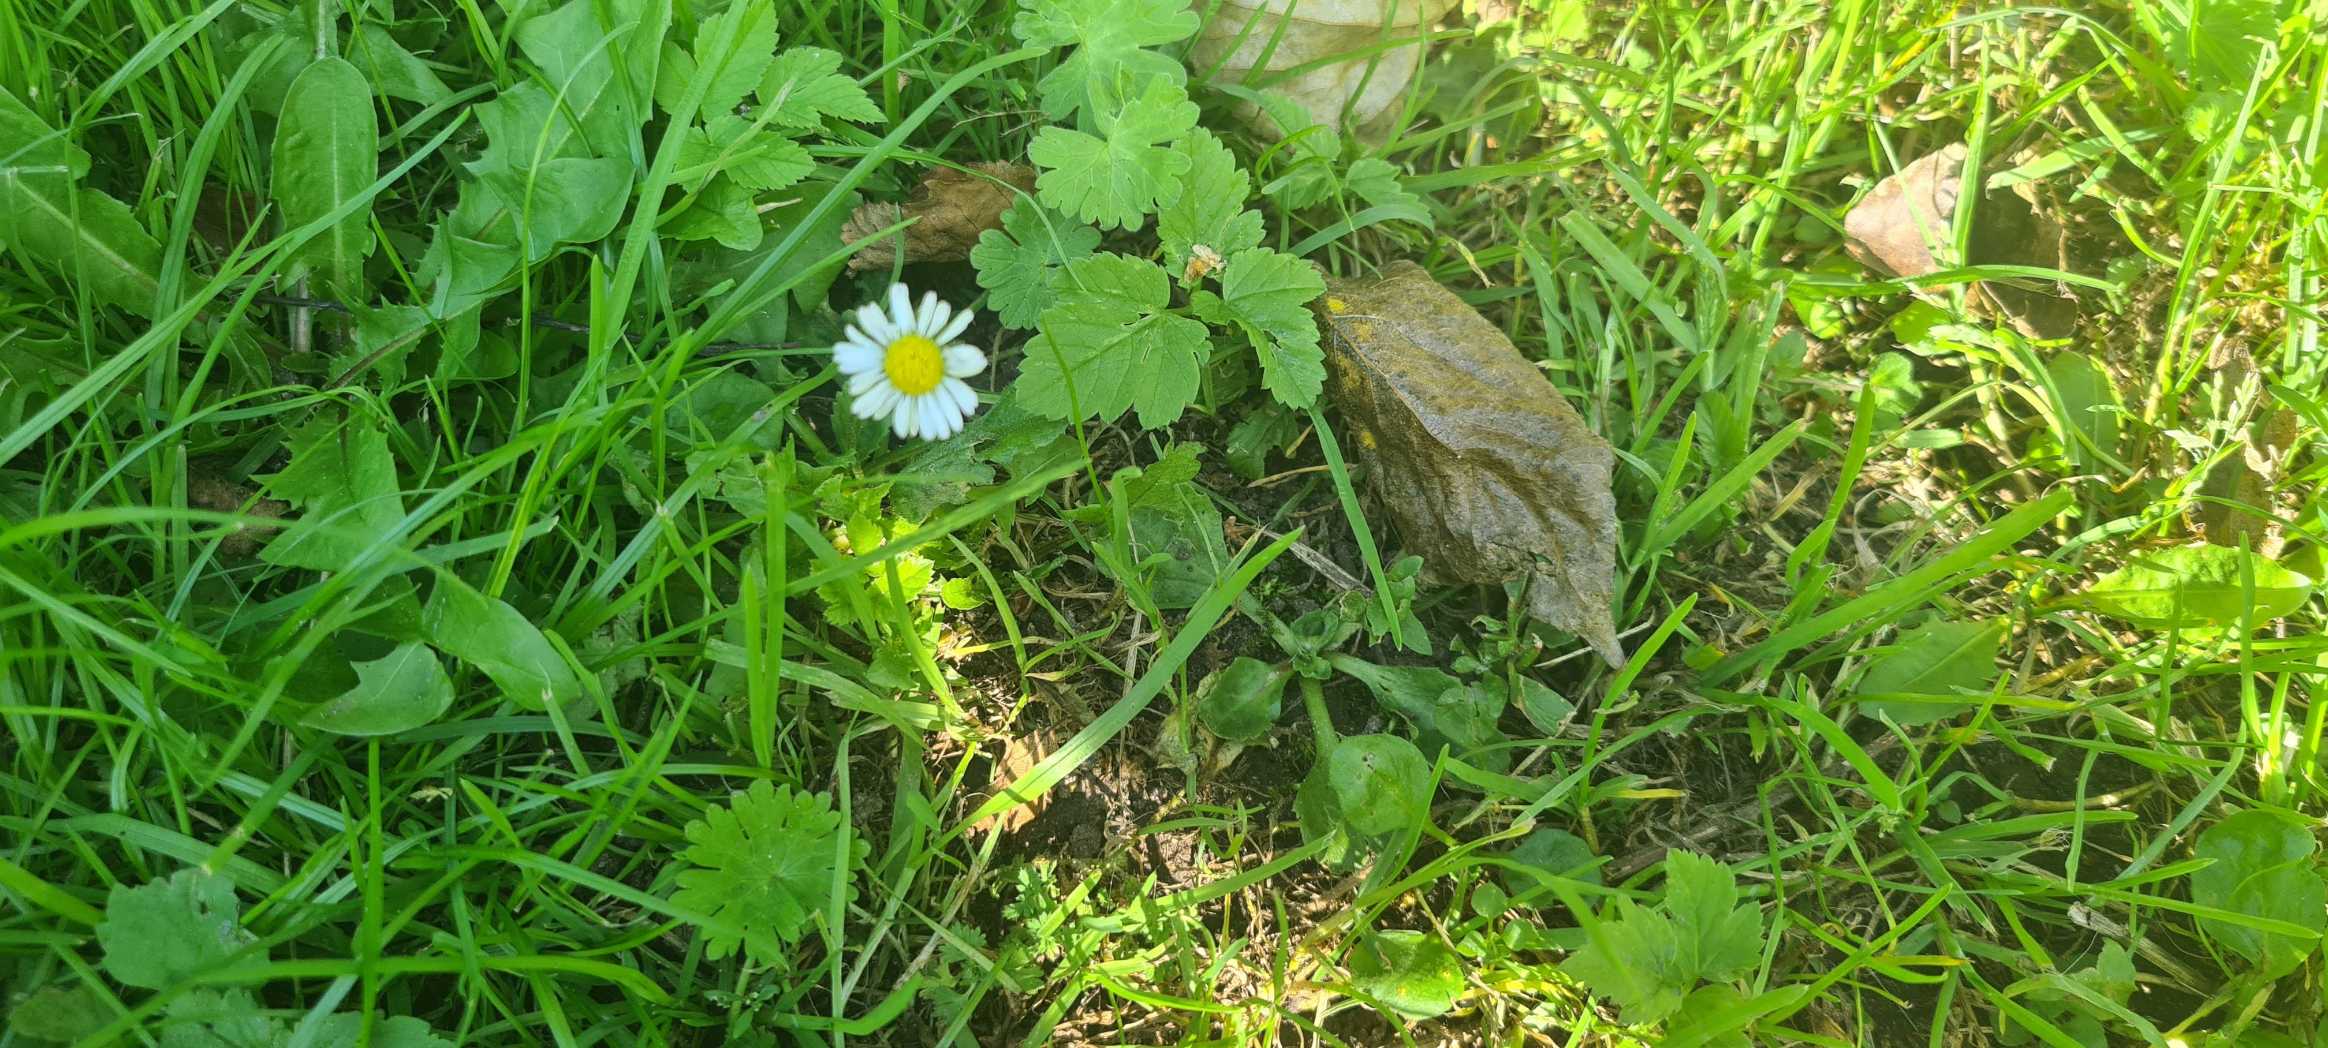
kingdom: Plantae
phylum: Tracheophyta
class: Magnoliopsida
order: Asterales
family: Asteraceae
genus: Bellis
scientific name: Bellis perennis
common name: Tusindfryd
